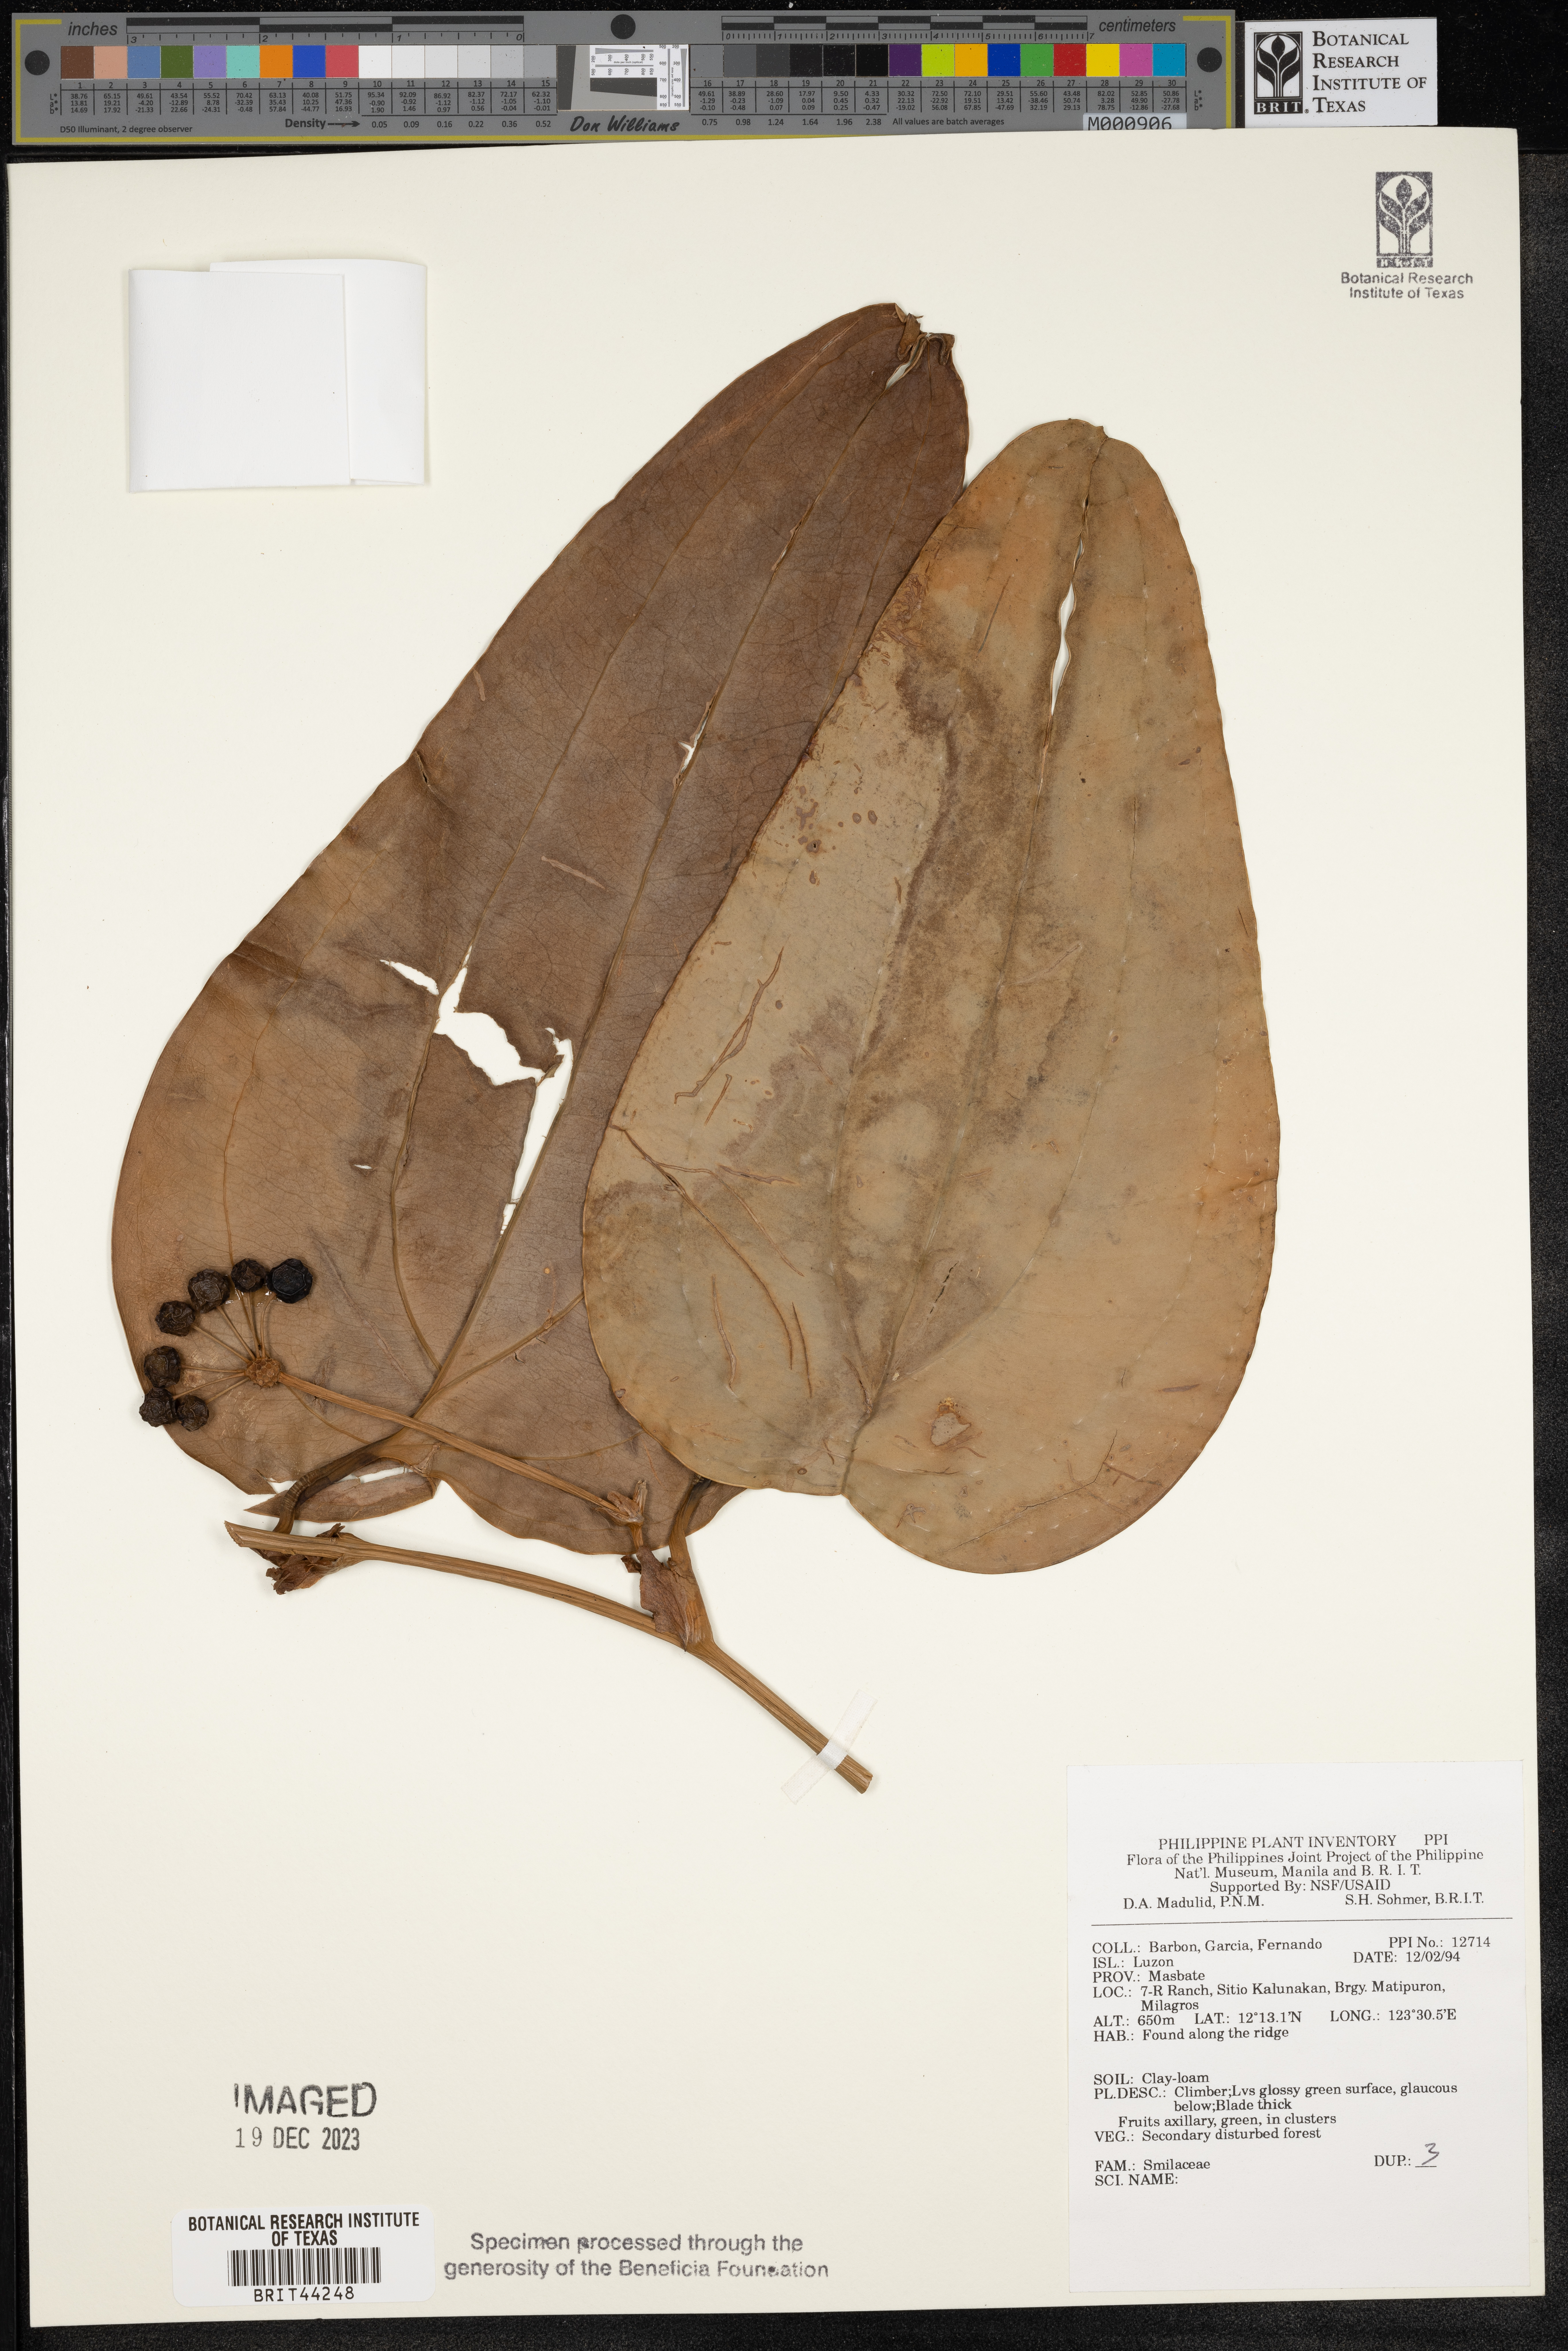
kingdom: Plantae
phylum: Tracheophyta
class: Liliopsida
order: Liliales
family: Smilacaceae
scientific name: Smilacaceae
